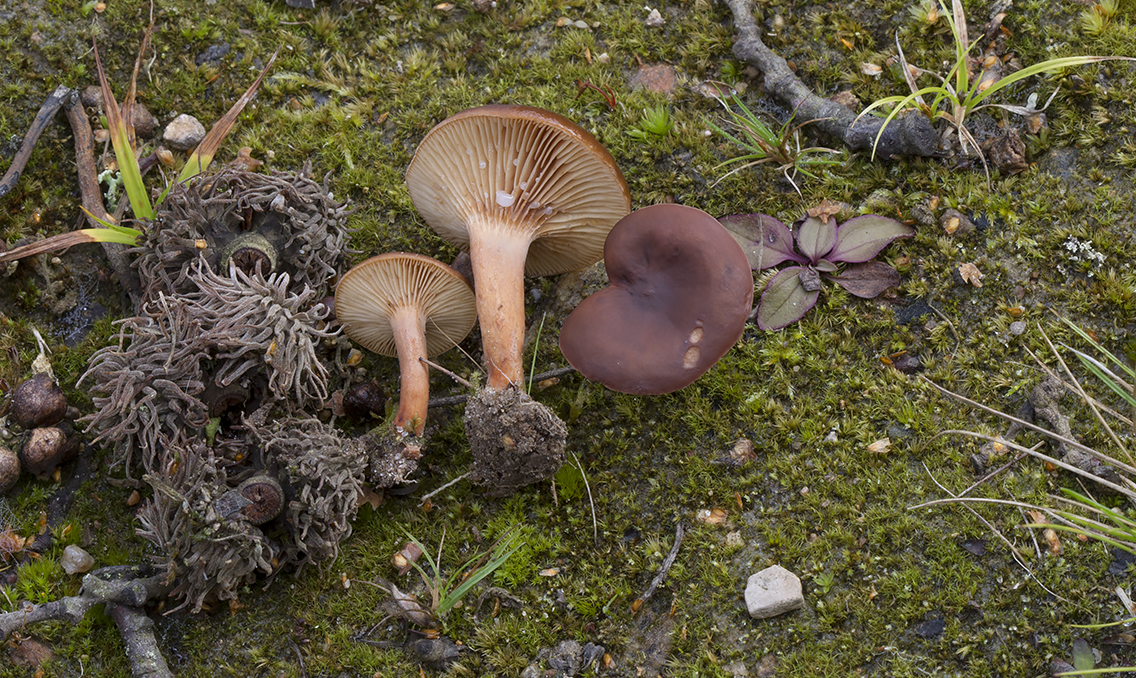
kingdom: Fungi
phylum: Basidiomycota
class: Agaricomycetes
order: Russulales
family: Russulaceae
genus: Lactarius
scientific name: Lactarius serifluus
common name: tæge-mælkehat
